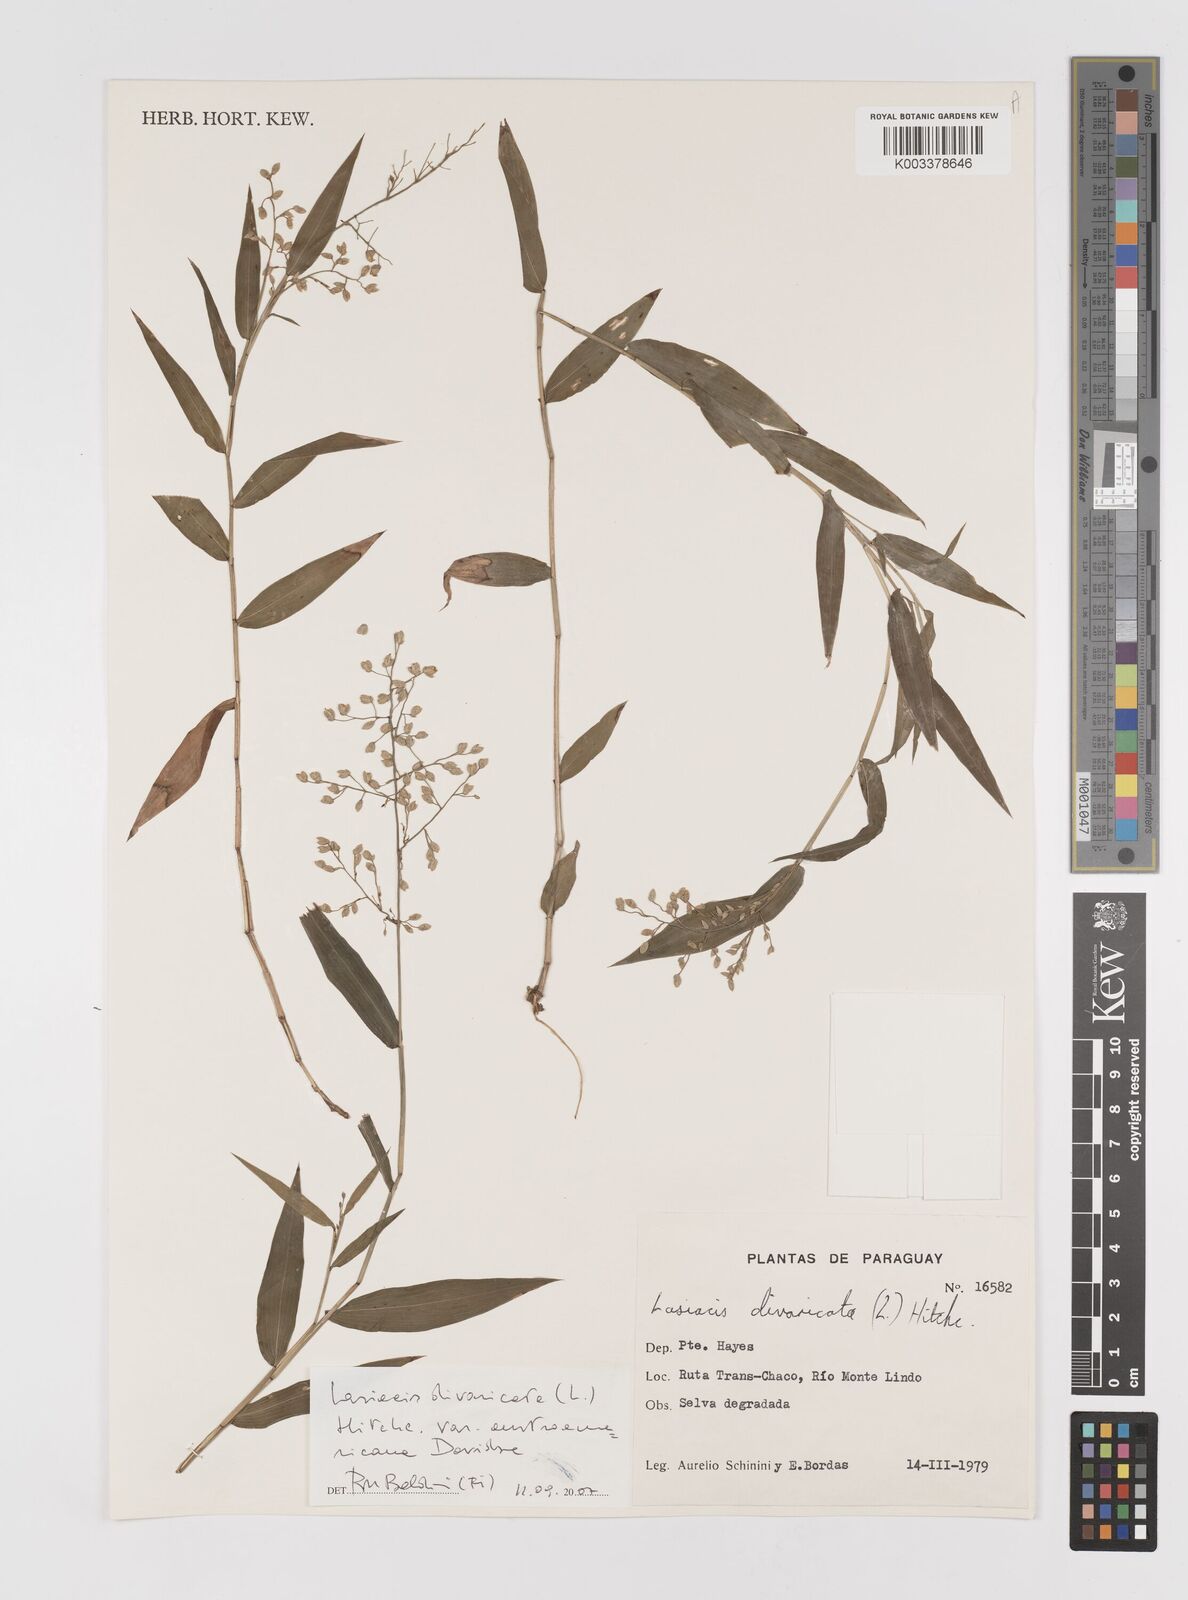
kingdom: Plantae
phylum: Tracheophyta
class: Liliopsida
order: Poales
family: Poaceae
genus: Lasiacis
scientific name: Lasiacis divaricata
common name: Smallcane
